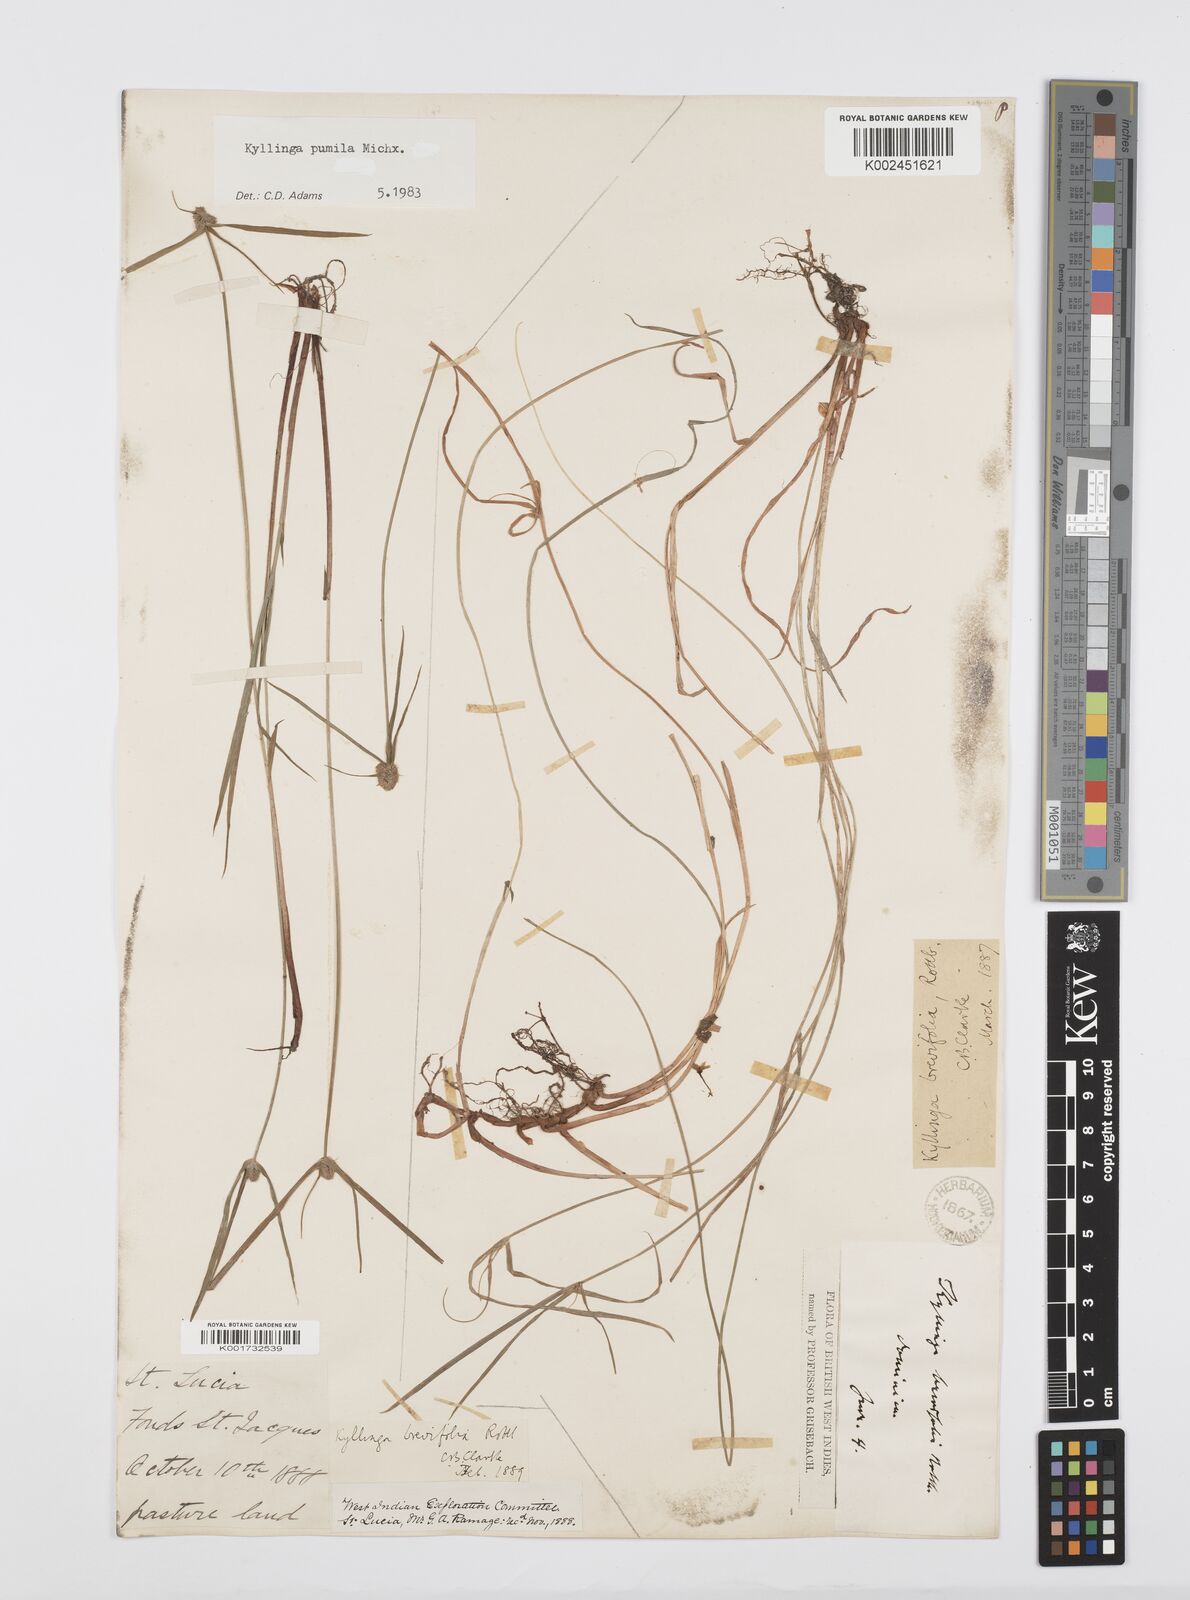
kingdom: Plantae
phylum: Tracheophyta
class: Liliopsida
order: Poales
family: Cyperaceae
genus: Cyperus
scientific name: Cyperus brevifolius
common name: Globe kyllinga
